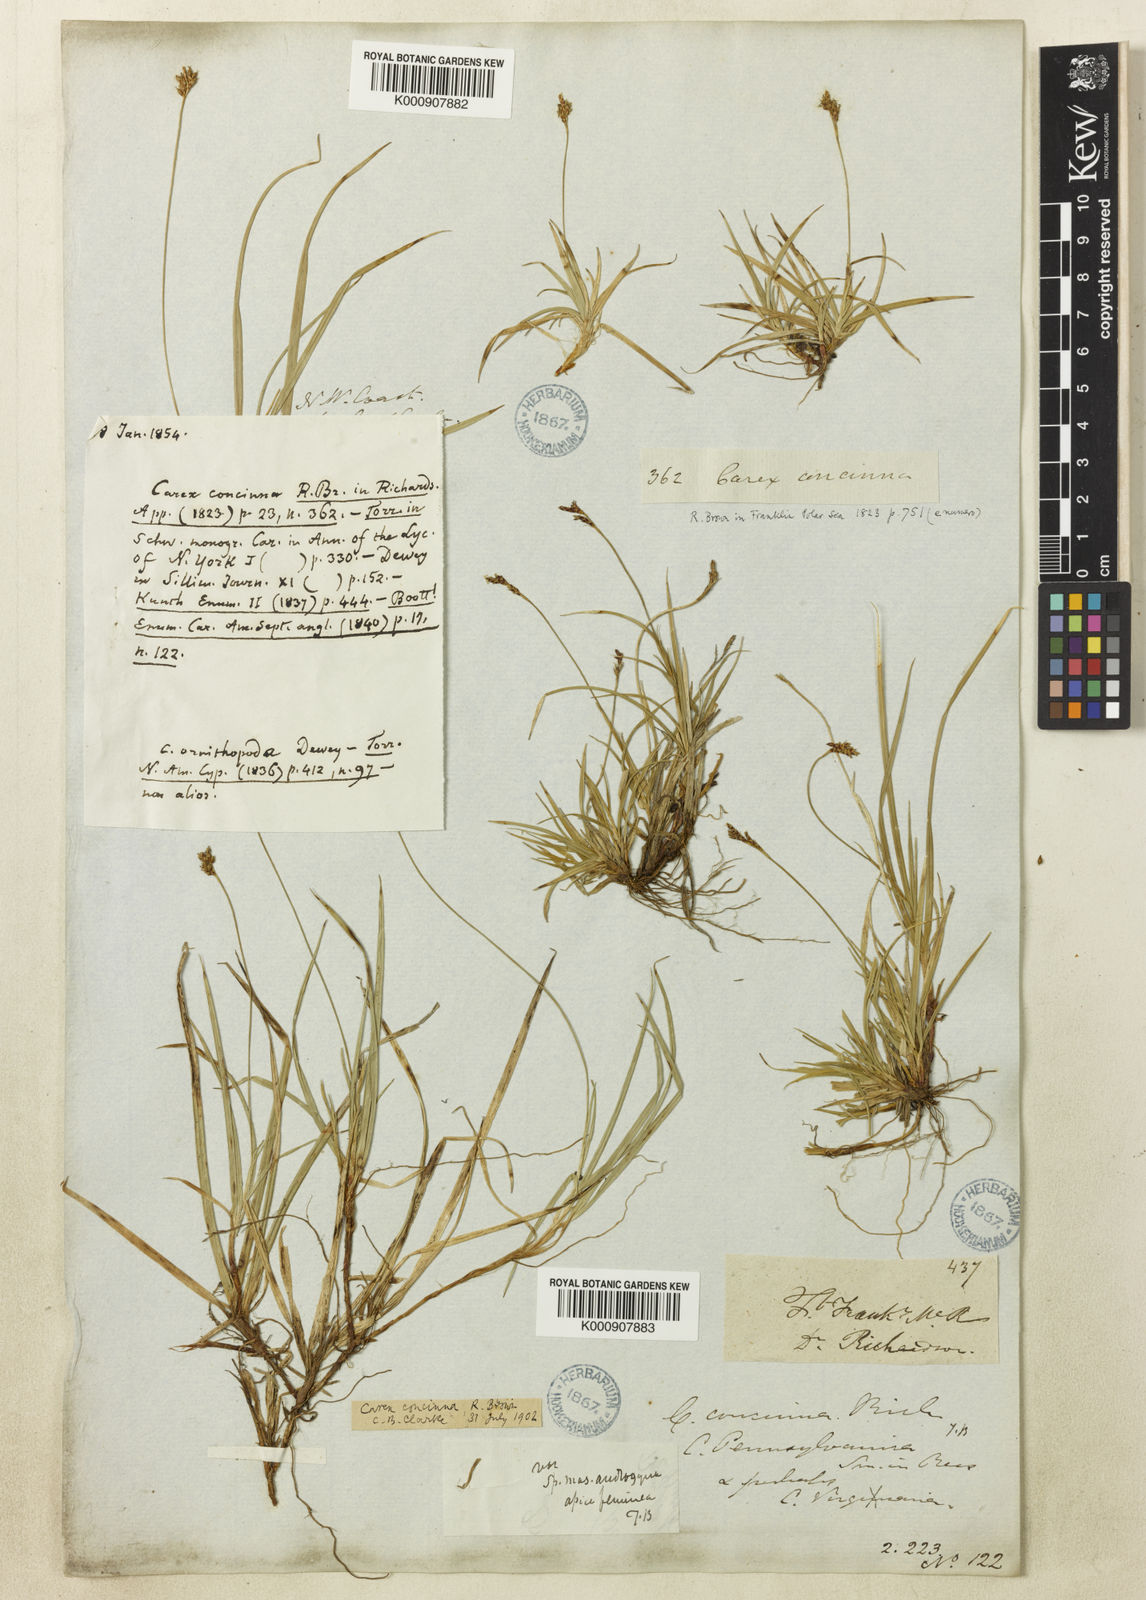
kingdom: Plantae
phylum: Tracheophyta
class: Liliopsida
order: Poales
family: Cyperaceae
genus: Carex
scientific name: Carex concinna
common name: Beautiful sedge
